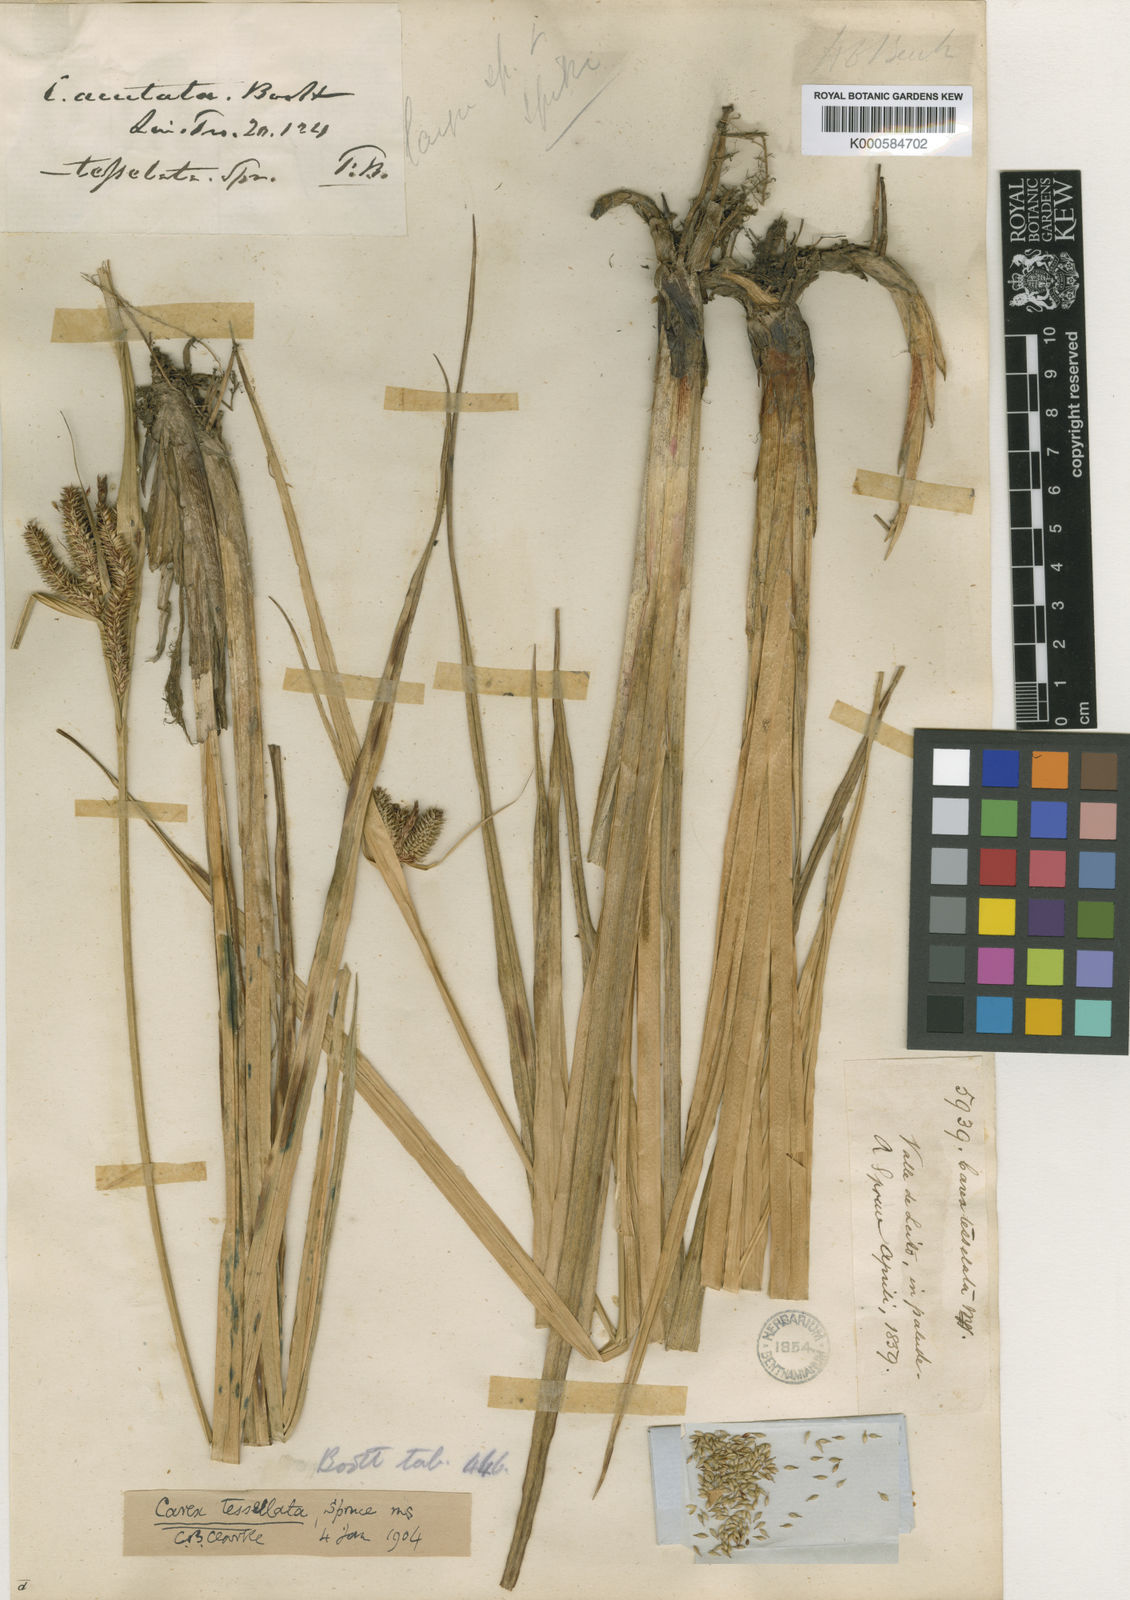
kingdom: Plantae
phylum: Tracheophyta
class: Liliopsida
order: Poales
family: Cyperaceae
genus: Carex
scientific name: Carex acutata
